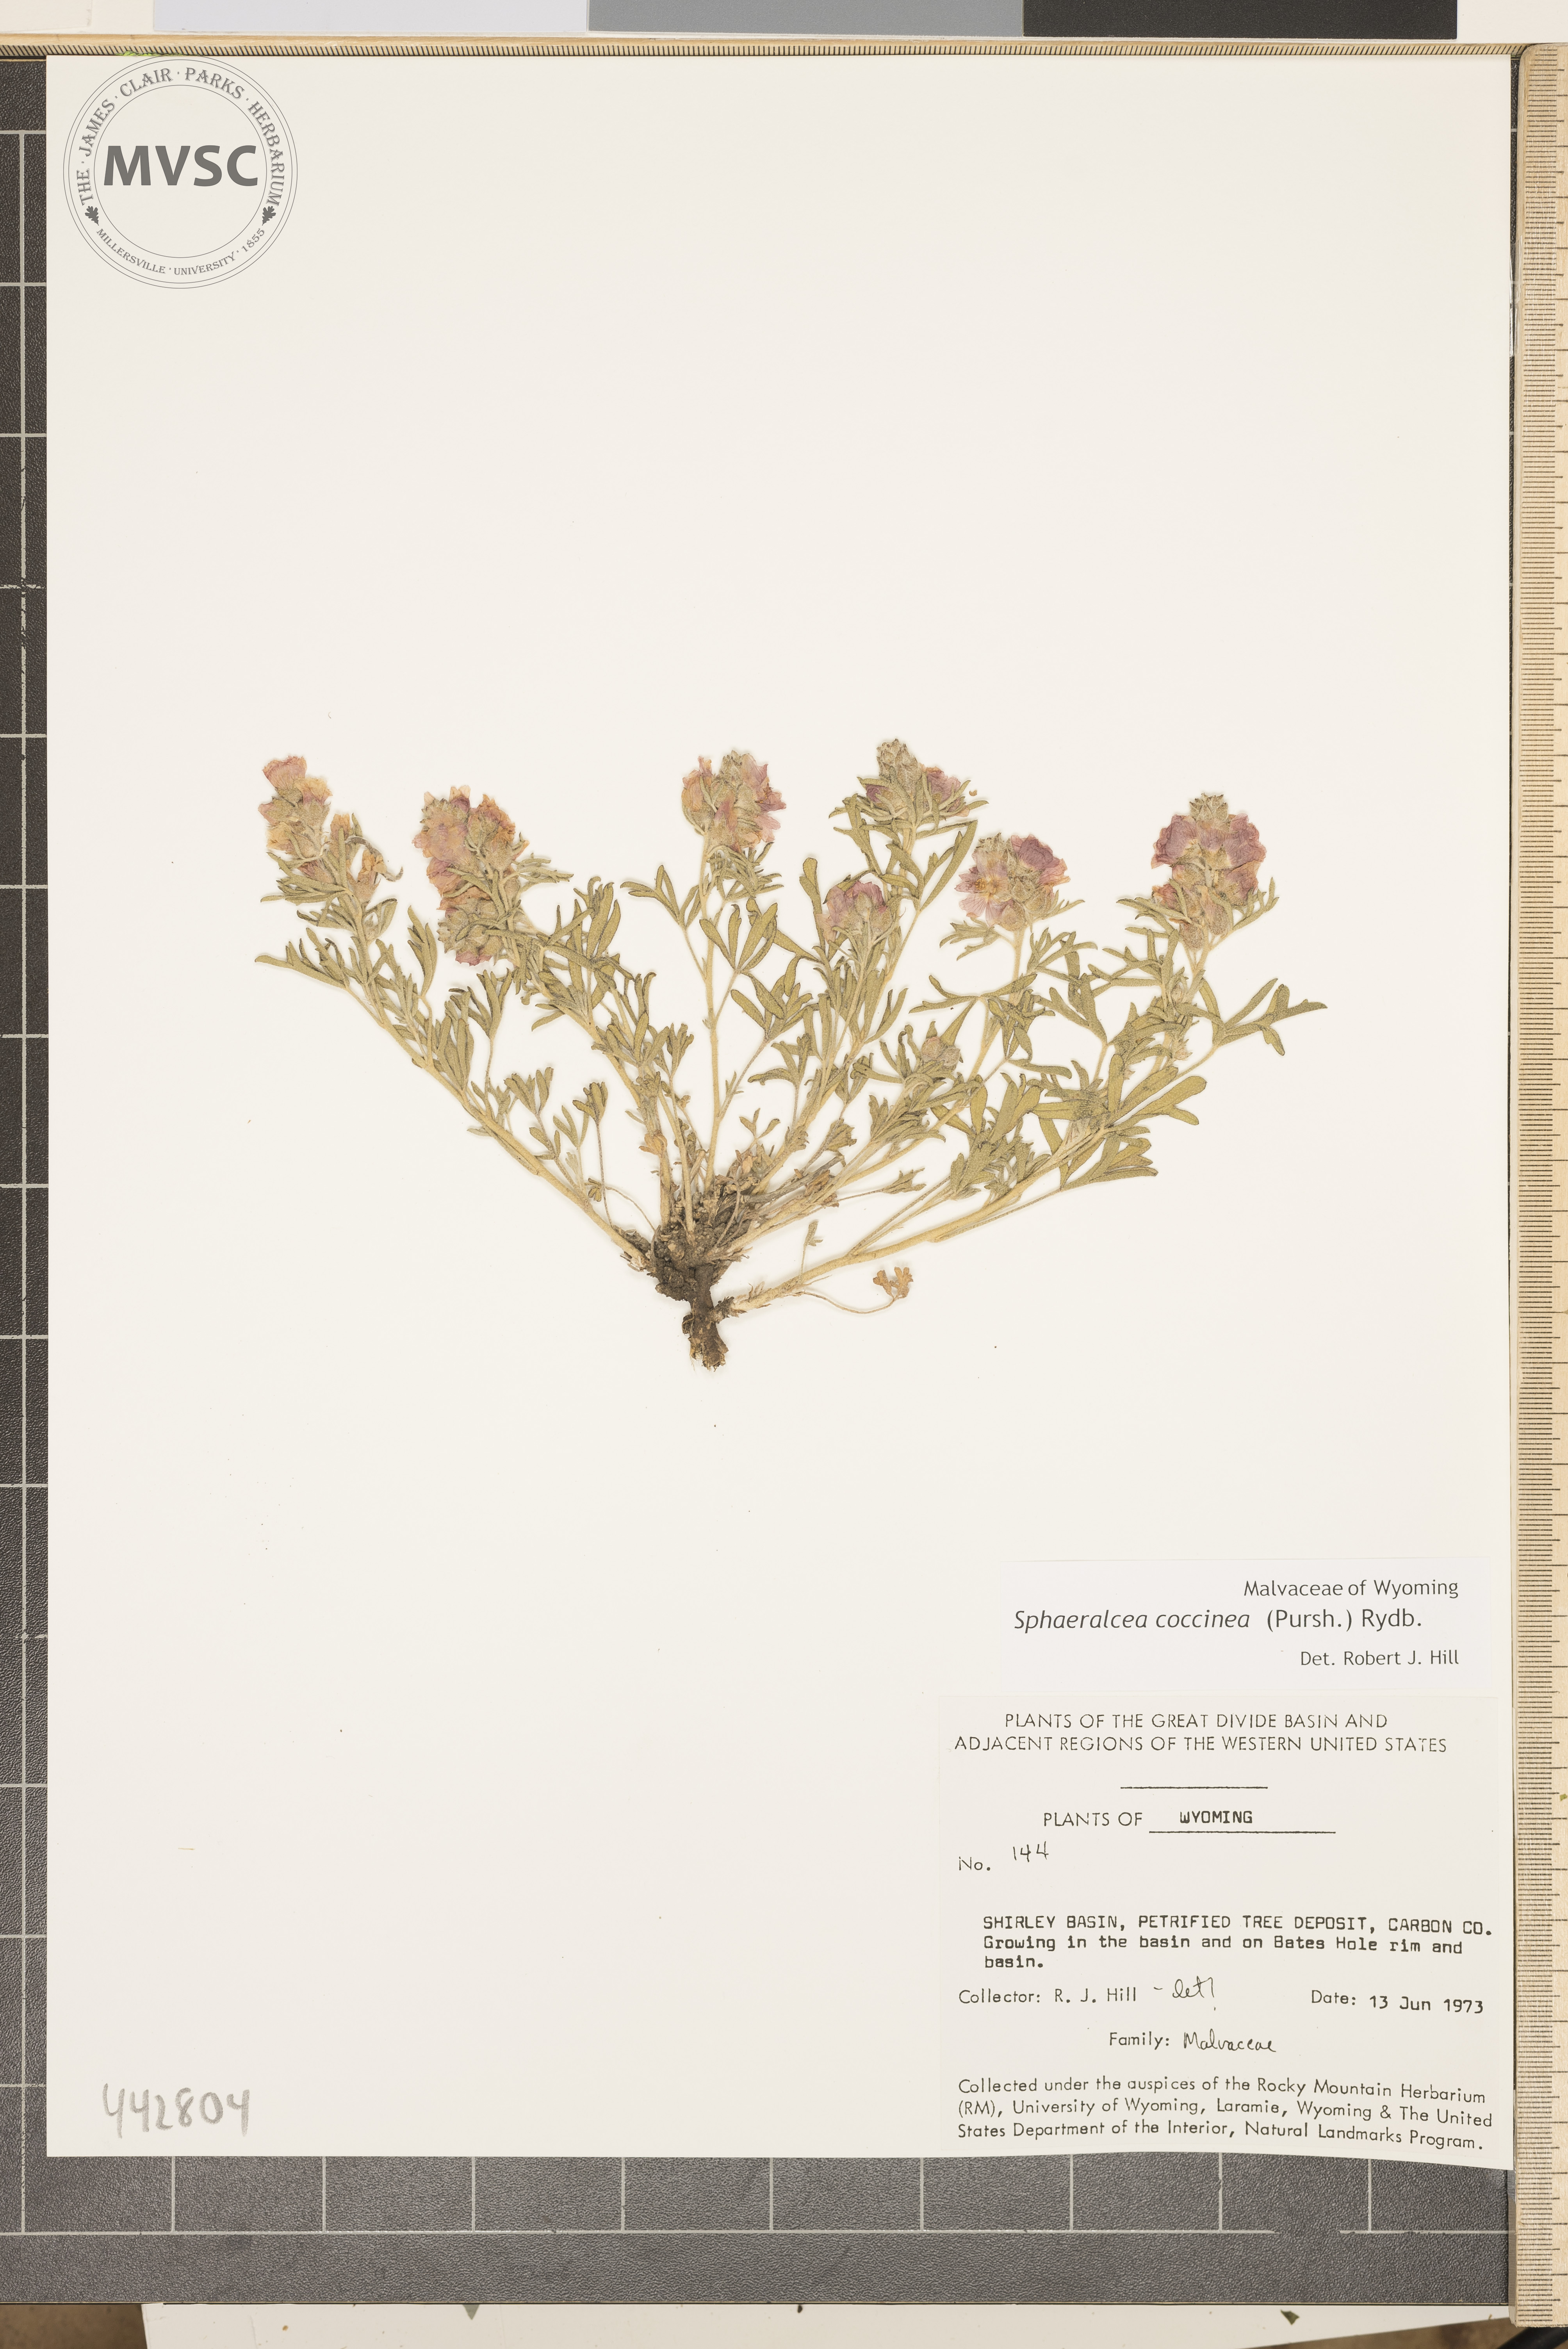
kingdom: Plantae
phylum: Tracheophyta
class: Magnoliopsida
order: Malvales
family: Malvaceae
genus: Sphaeralcea
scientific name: Sphaeralcea coccinea
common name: Moss-rose
